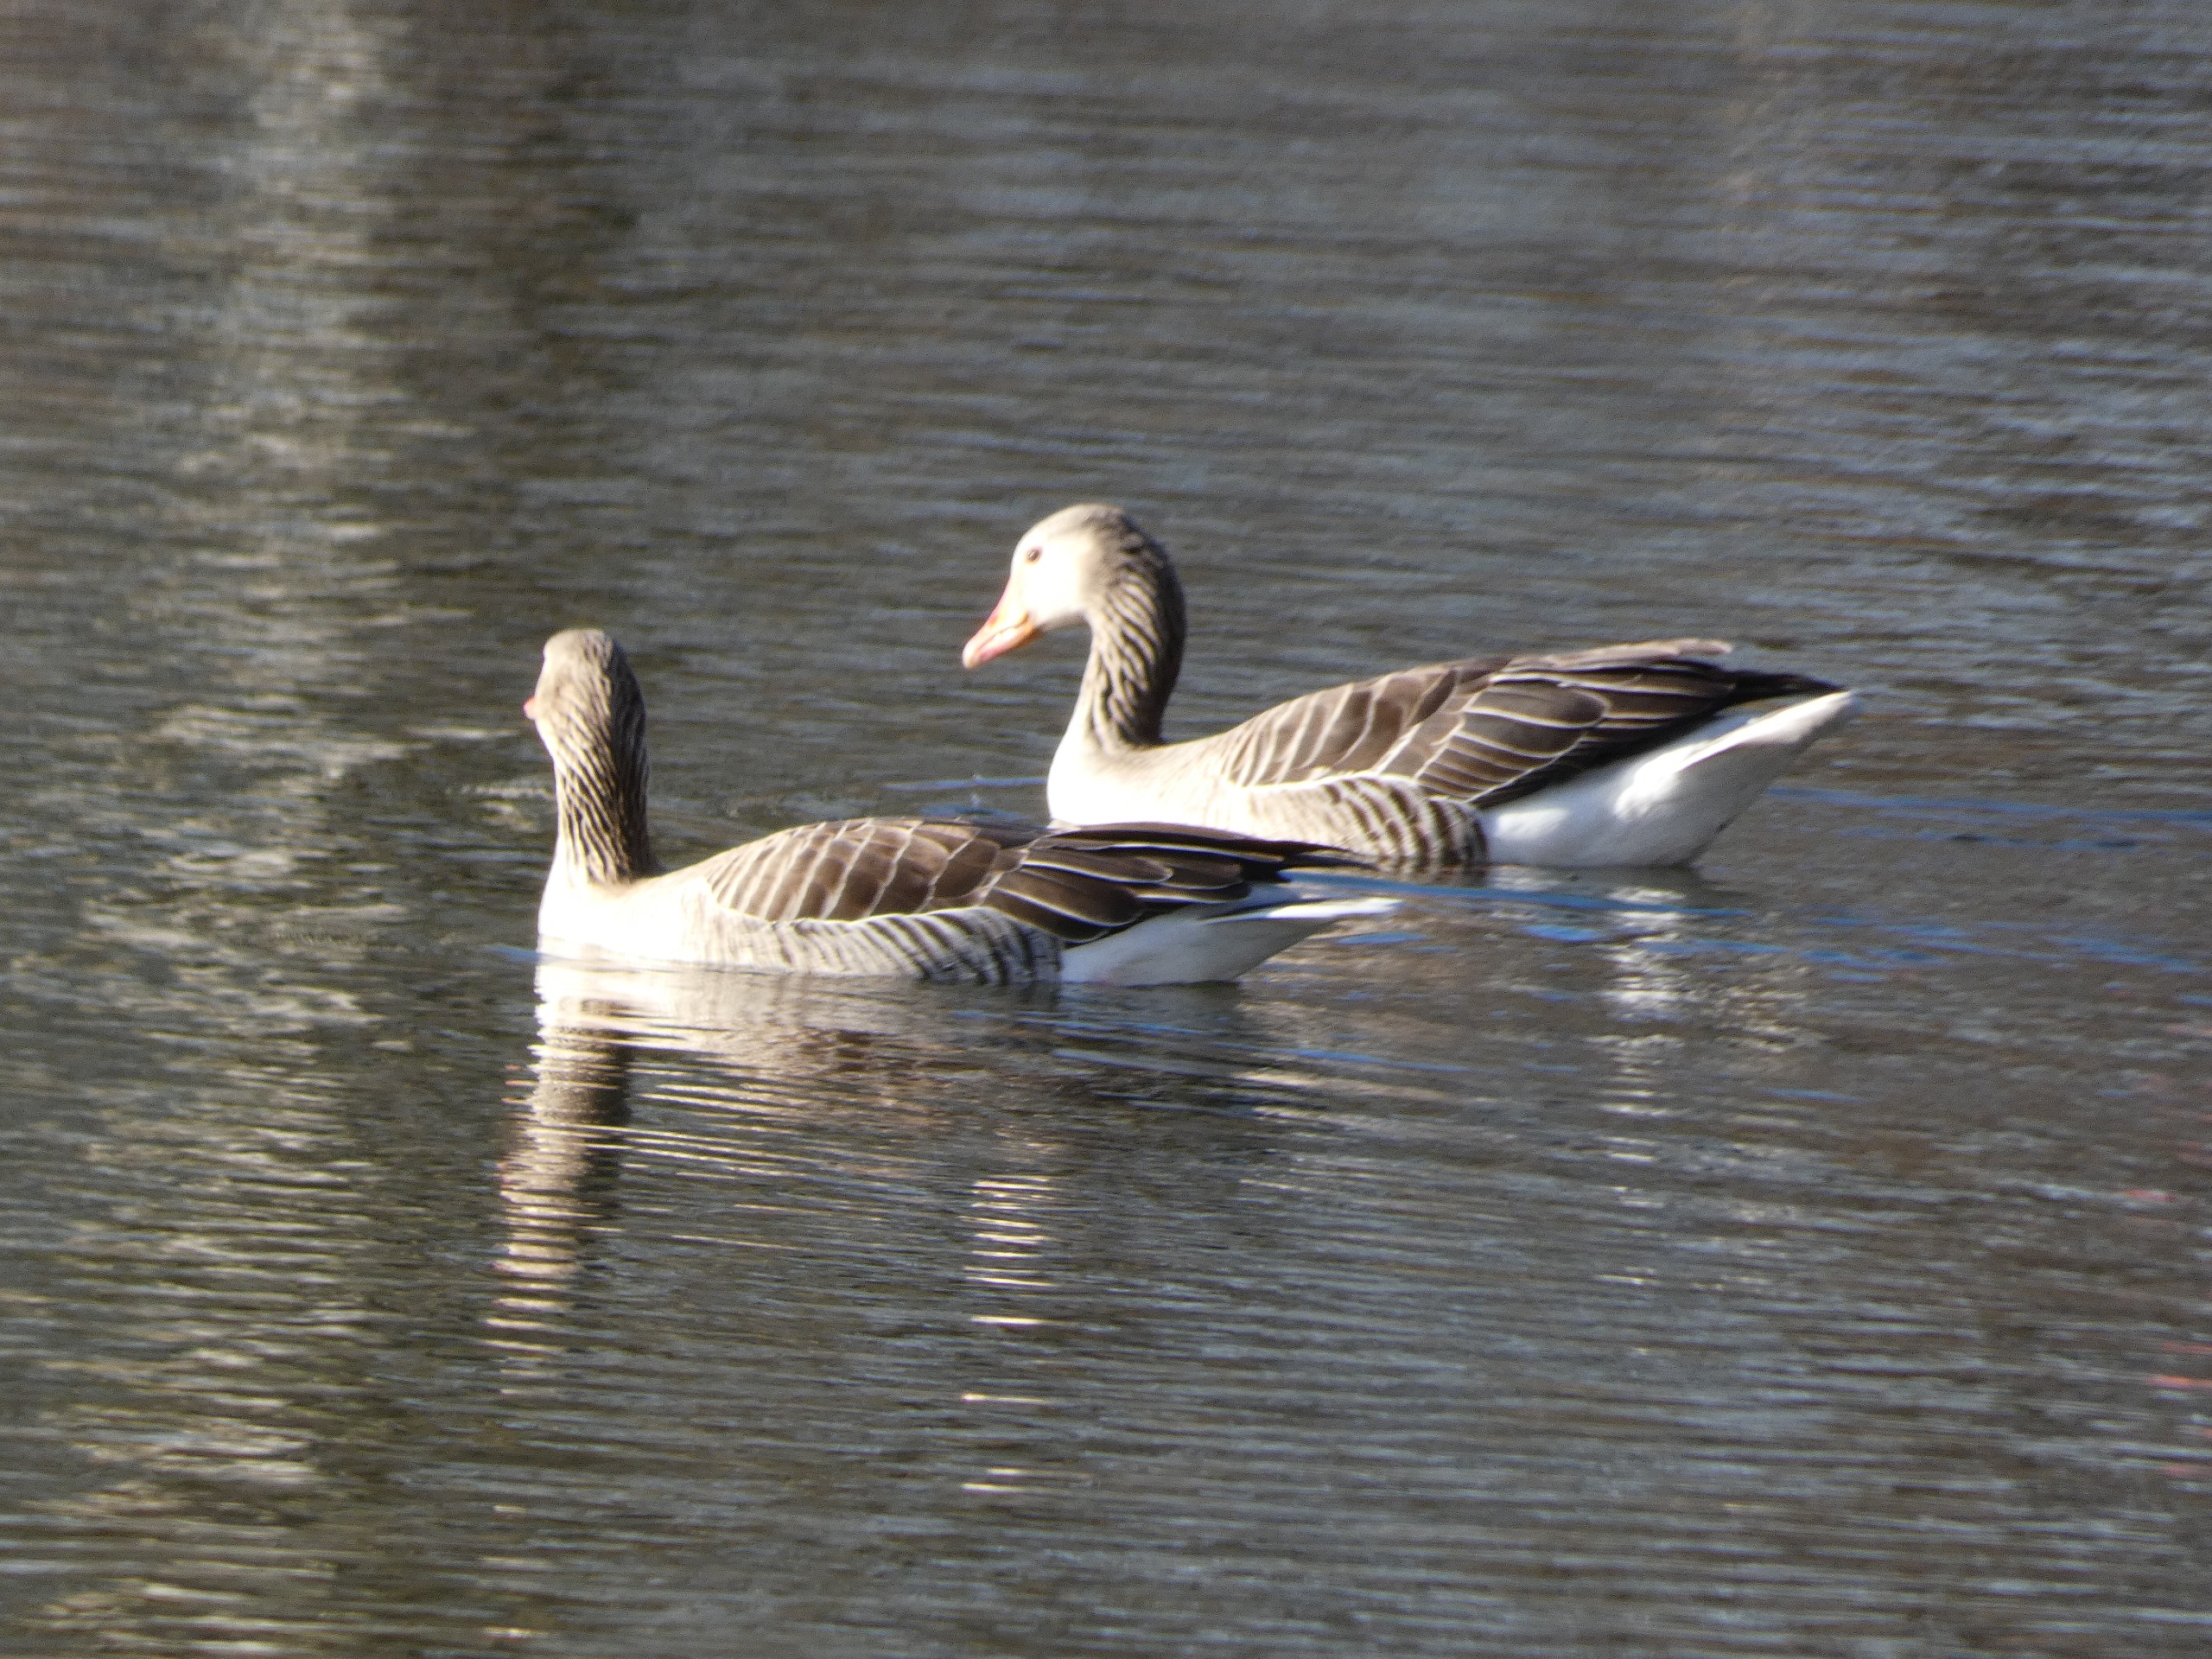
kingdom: Animalia
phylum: Chordata
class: Aves
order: Anseriformes
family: Anatidae
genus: Anser
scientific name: Anser anser
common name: Grågås
